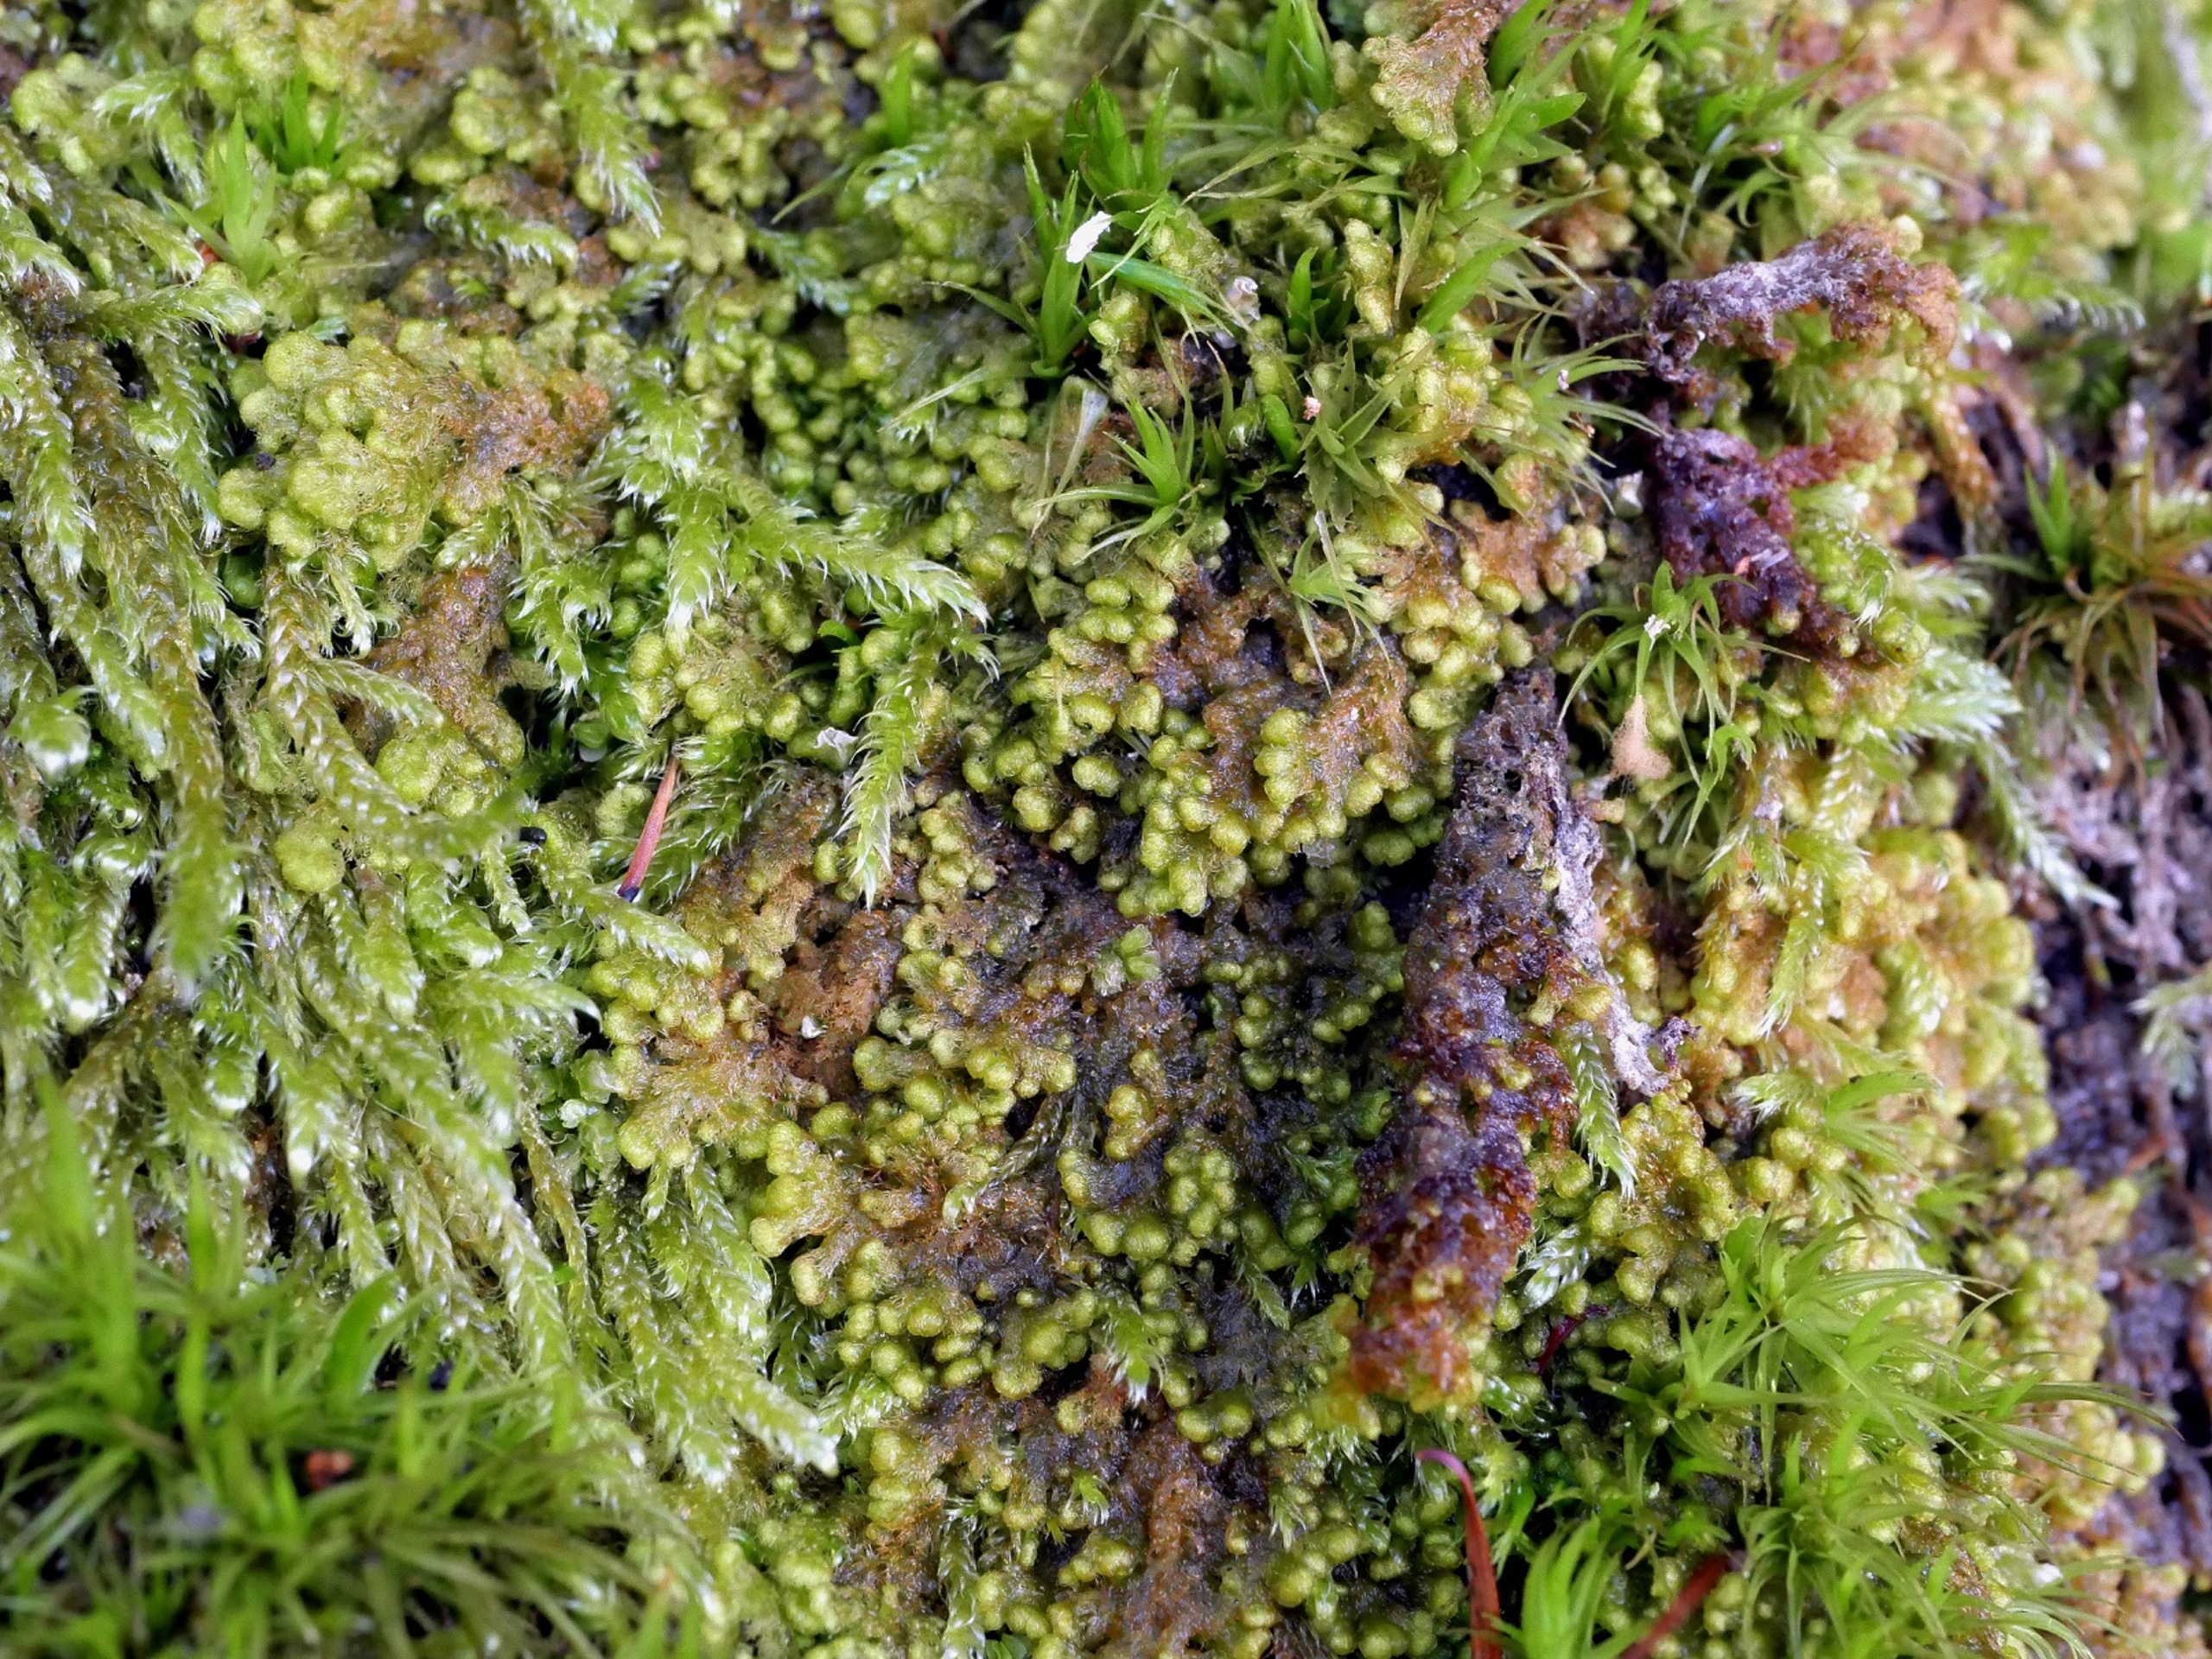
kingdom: Plantae
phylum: Marchantiophyta
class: Jungermanniopsida
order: Ptilidiales
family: Ptilidiaceae
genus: Ptilidium
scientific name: Ptilidium pulcherrimum
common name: Stub-frynsemos
